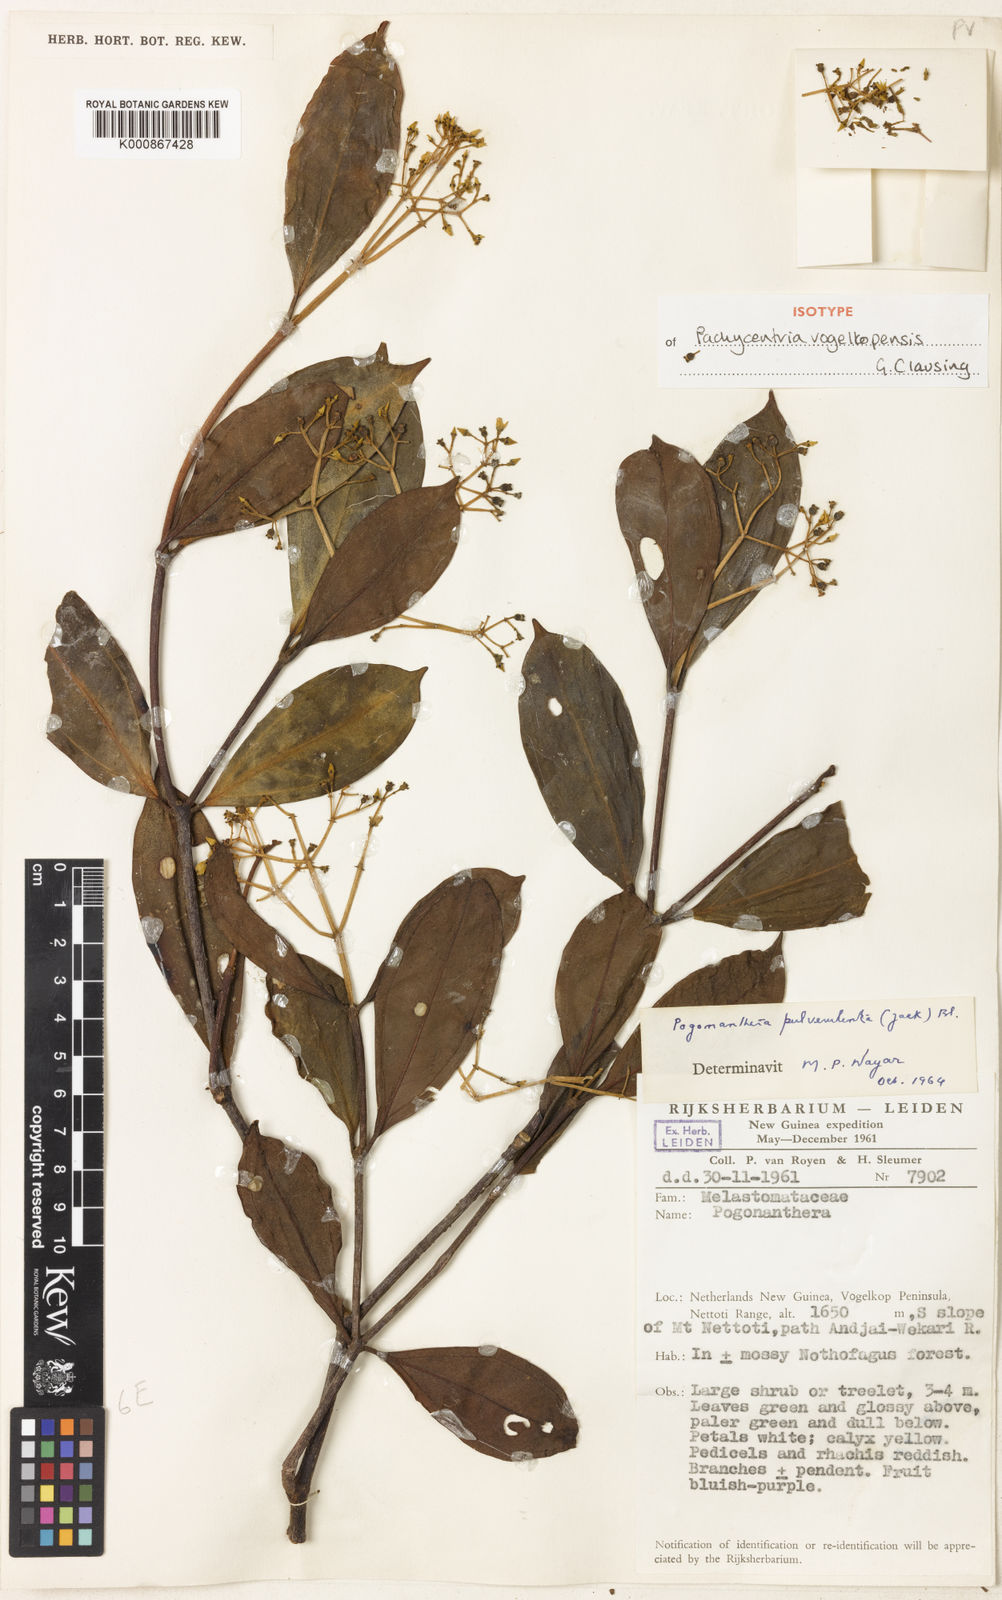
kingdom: Plantae
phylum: Tracheophyta
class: Magnoliopsida
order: Myrtales
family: Melastomataceae
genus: Pachycentria
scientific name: Pachycentria vogelkopensis
